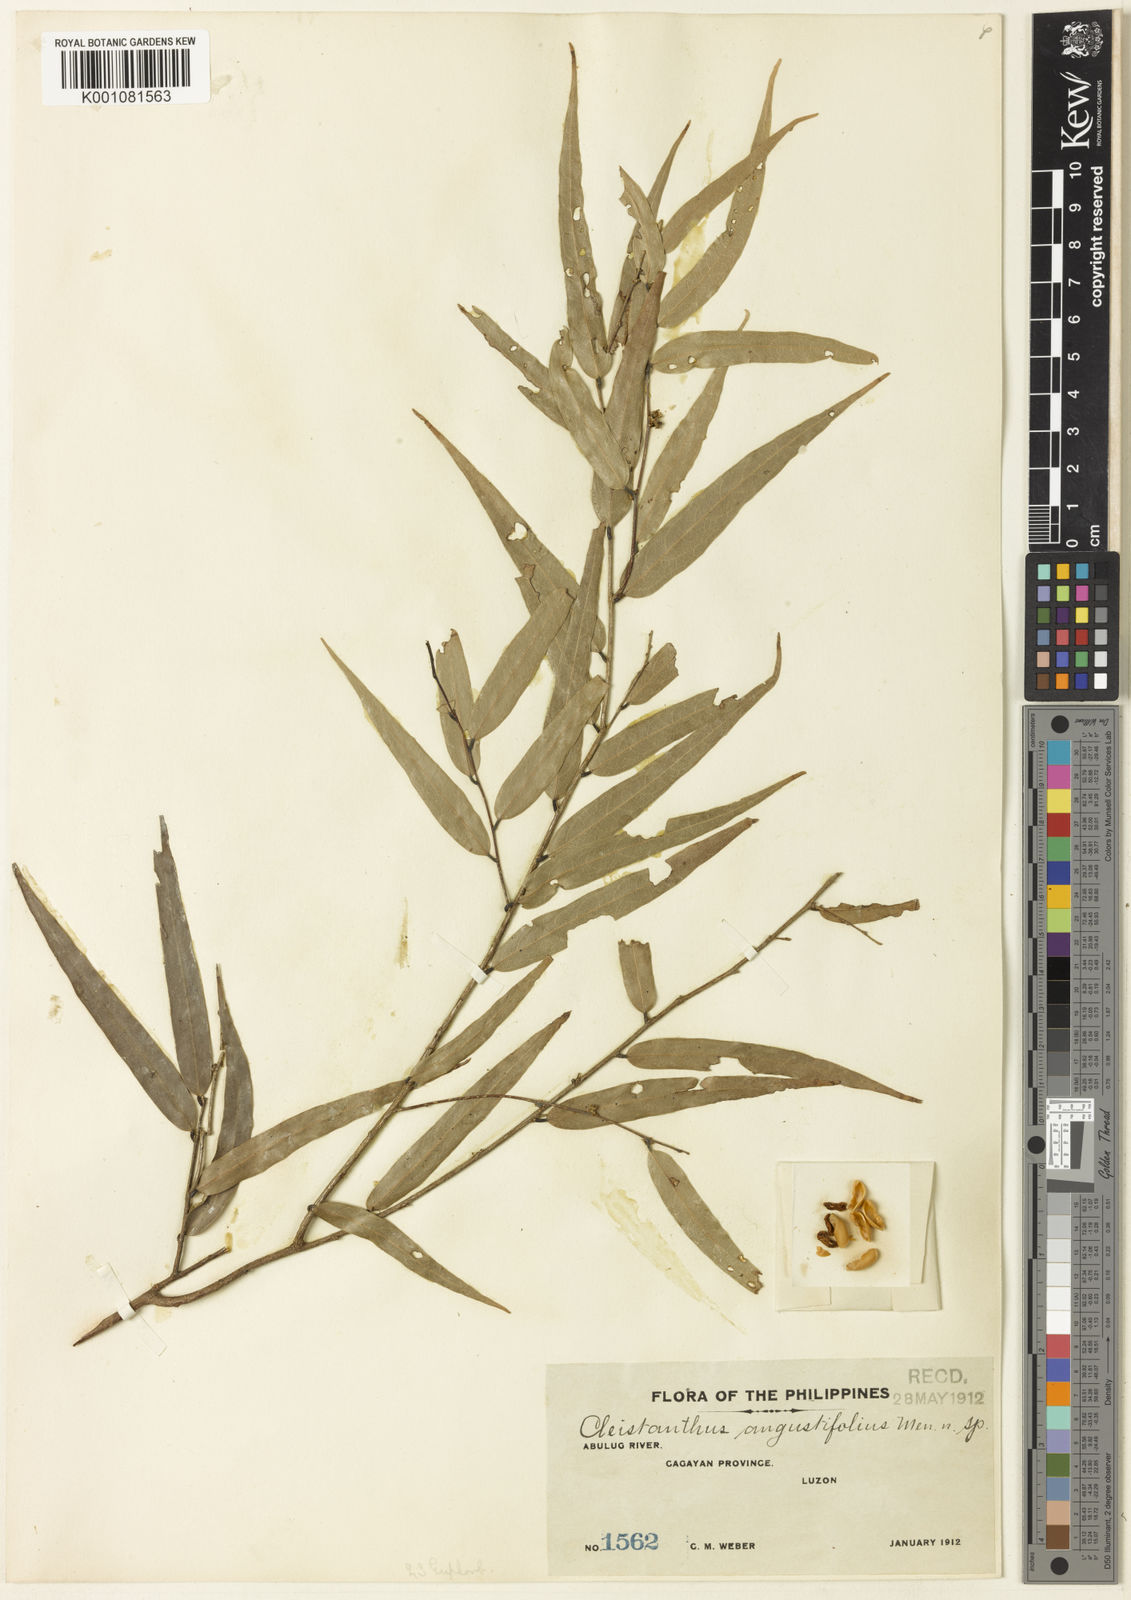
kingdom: Plantae
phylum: Tracheophyta
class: Magnoliopsida
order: Malpighiales
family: Phyllanthaceae
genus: Cleistanthus
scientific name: Cleistanthus angustifolius
